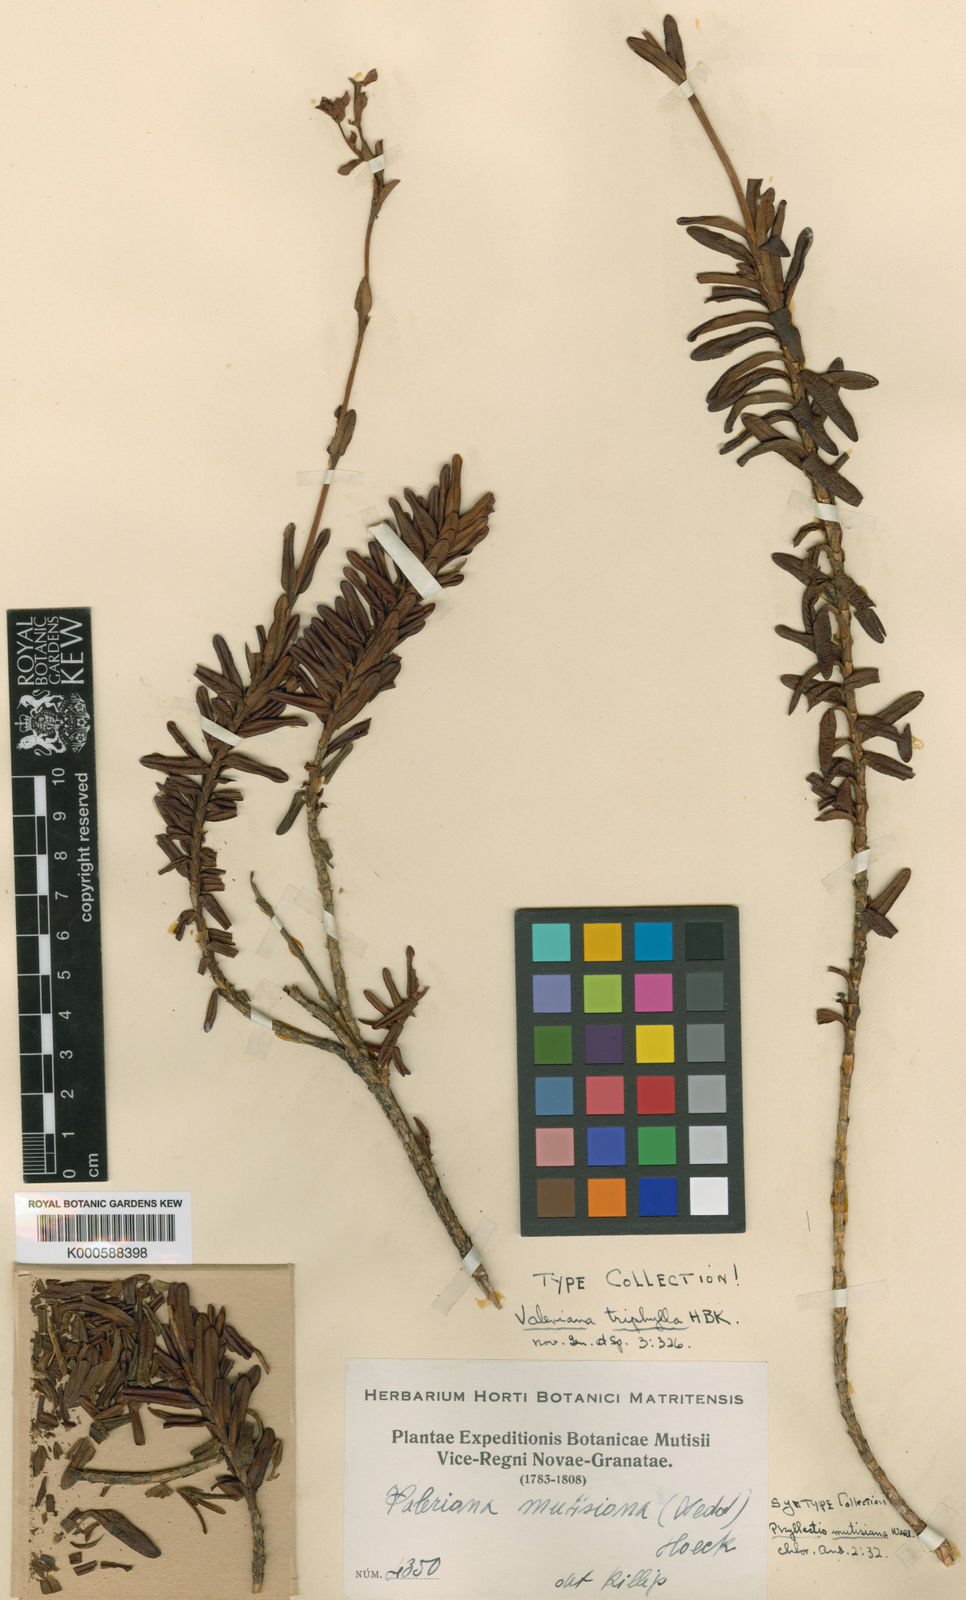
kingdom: Plantae
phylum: Tracheophyta
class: Magnoliopsida
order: Dipsacales
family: Caprifoliaceae
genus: Valeriana
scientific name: Valeriana
